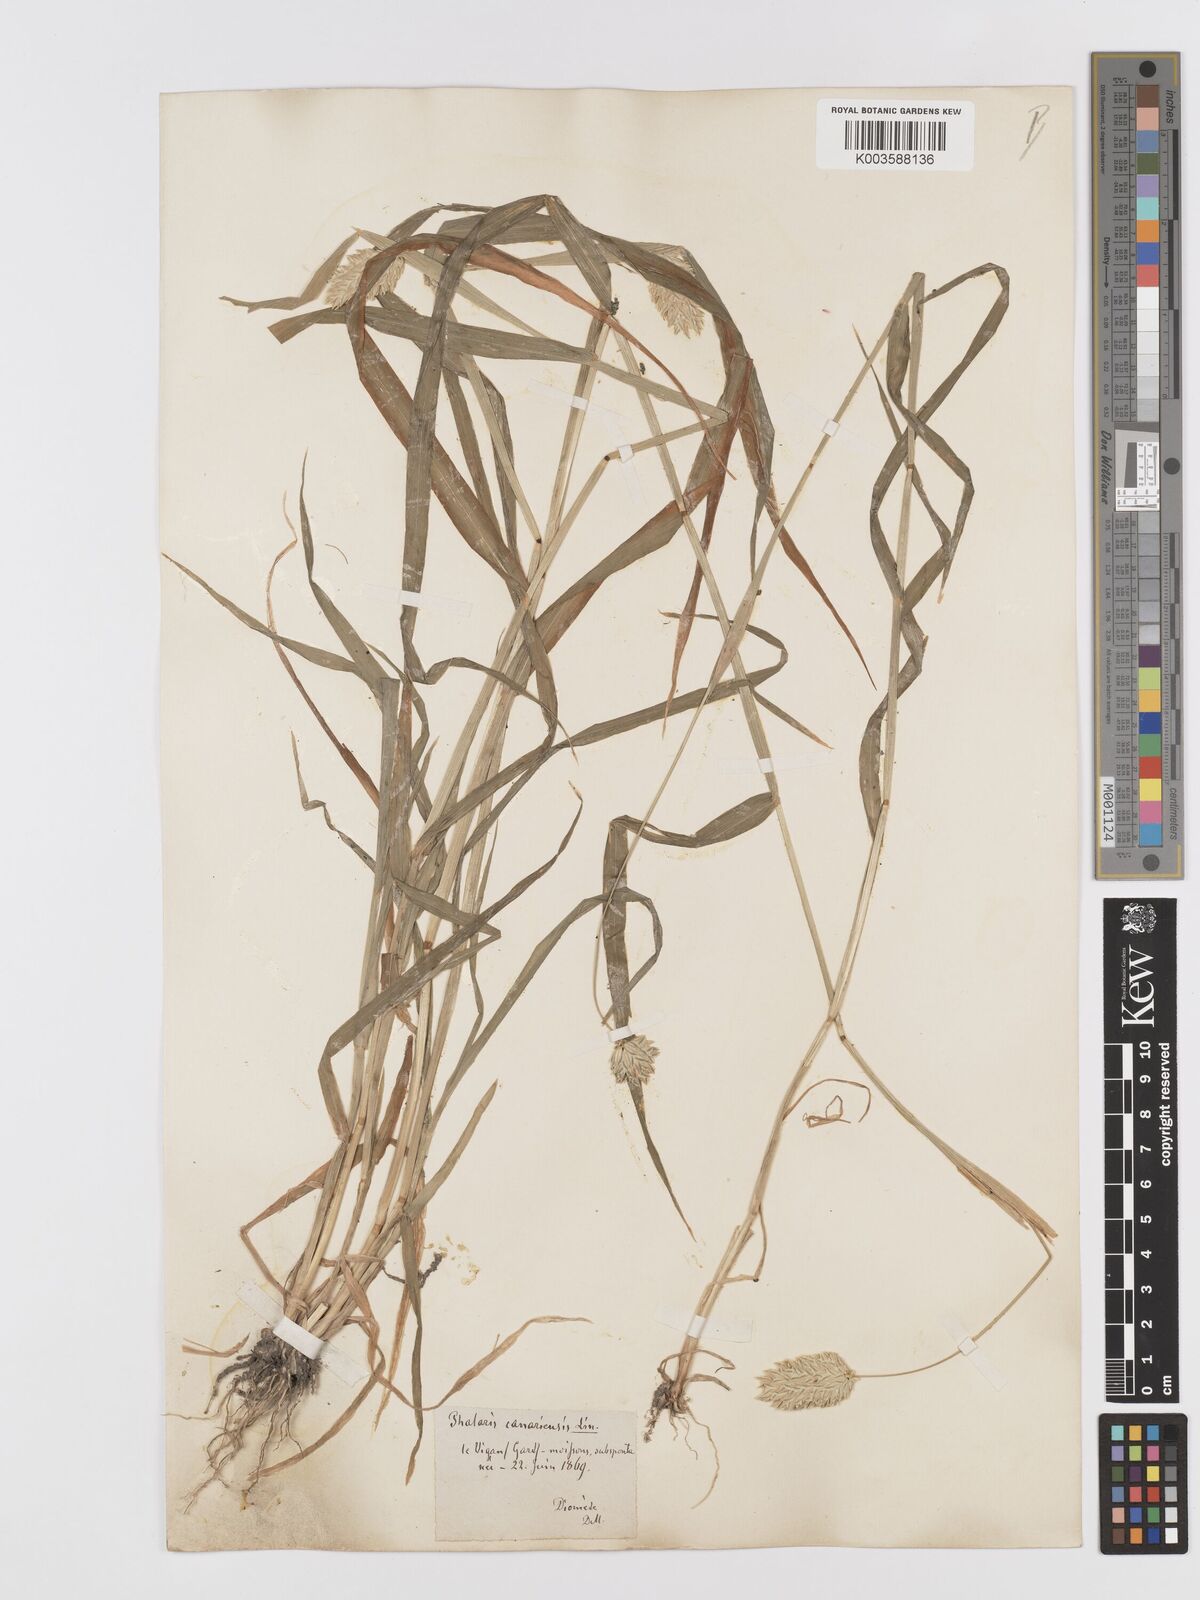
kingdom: Plantae
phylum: Tracheophyta
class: Liliopsida
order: Poales
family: Poaceae
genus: Phalaris
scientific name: Phalaris canariensis
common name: Annual canarygrass
